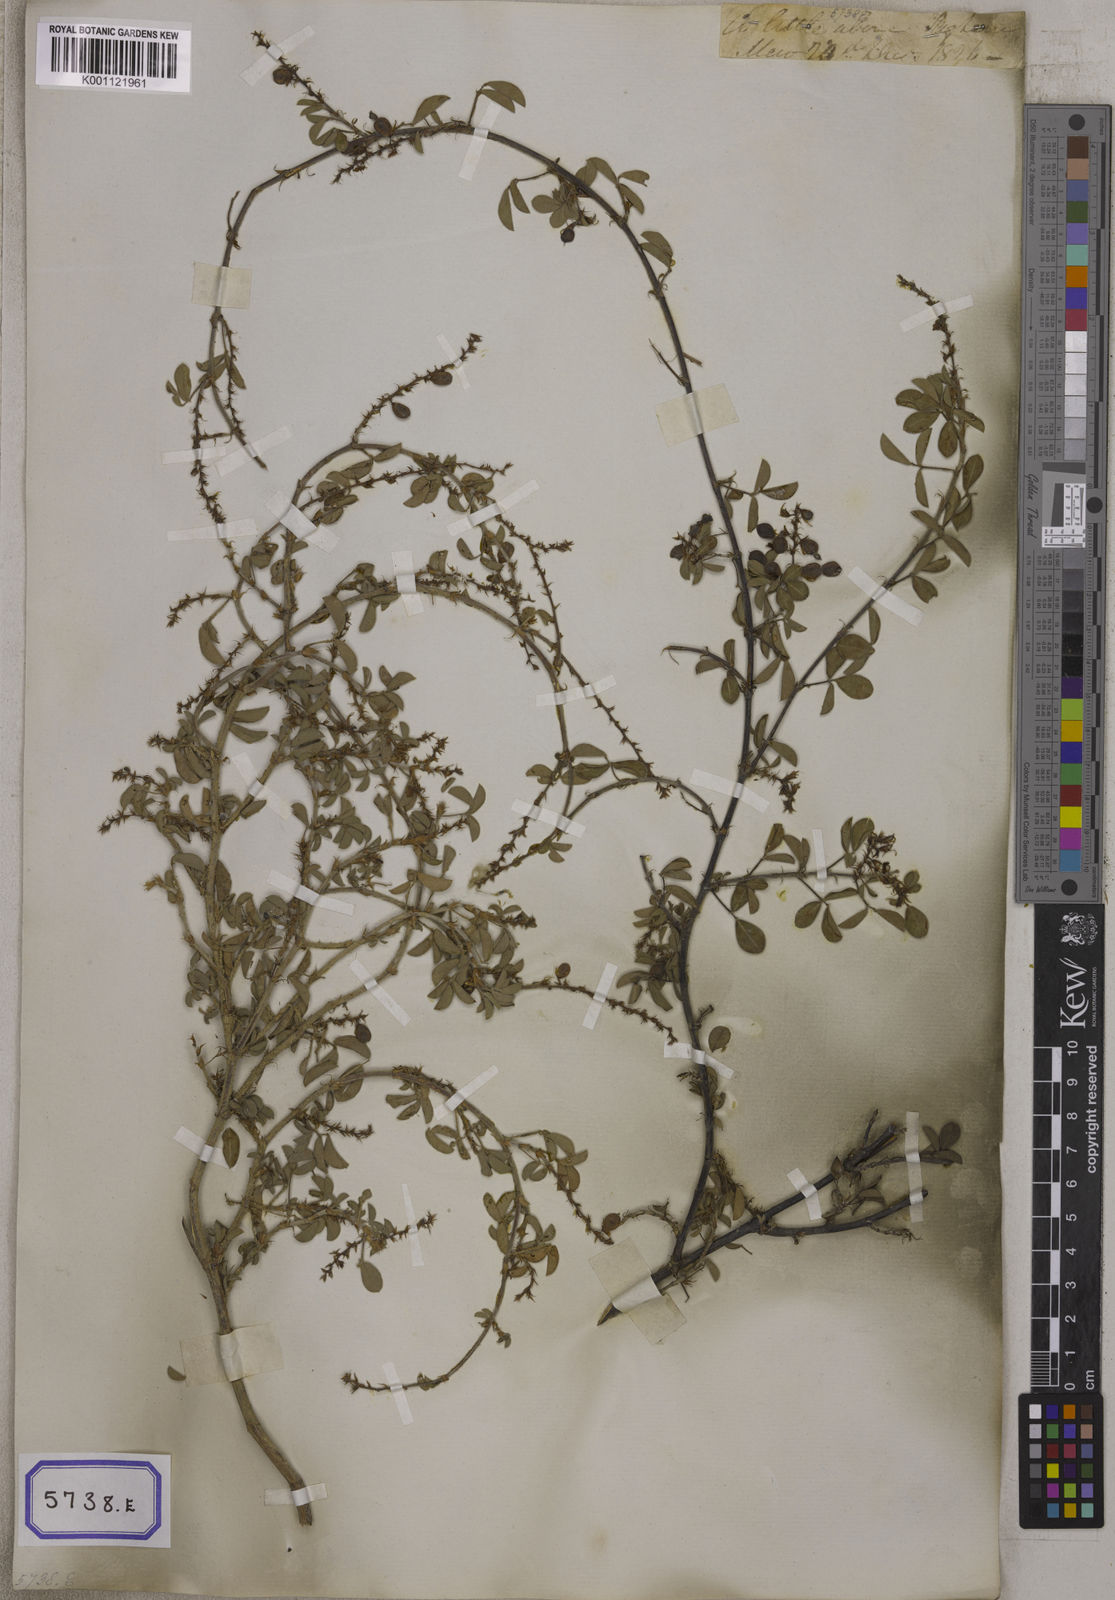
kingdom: Plantae
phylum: Tracheophyta
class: Magnoliopsida
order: Fabales
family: Fabaceae
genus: Aphyllodium
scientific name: Aphyllodium biarticulatum
